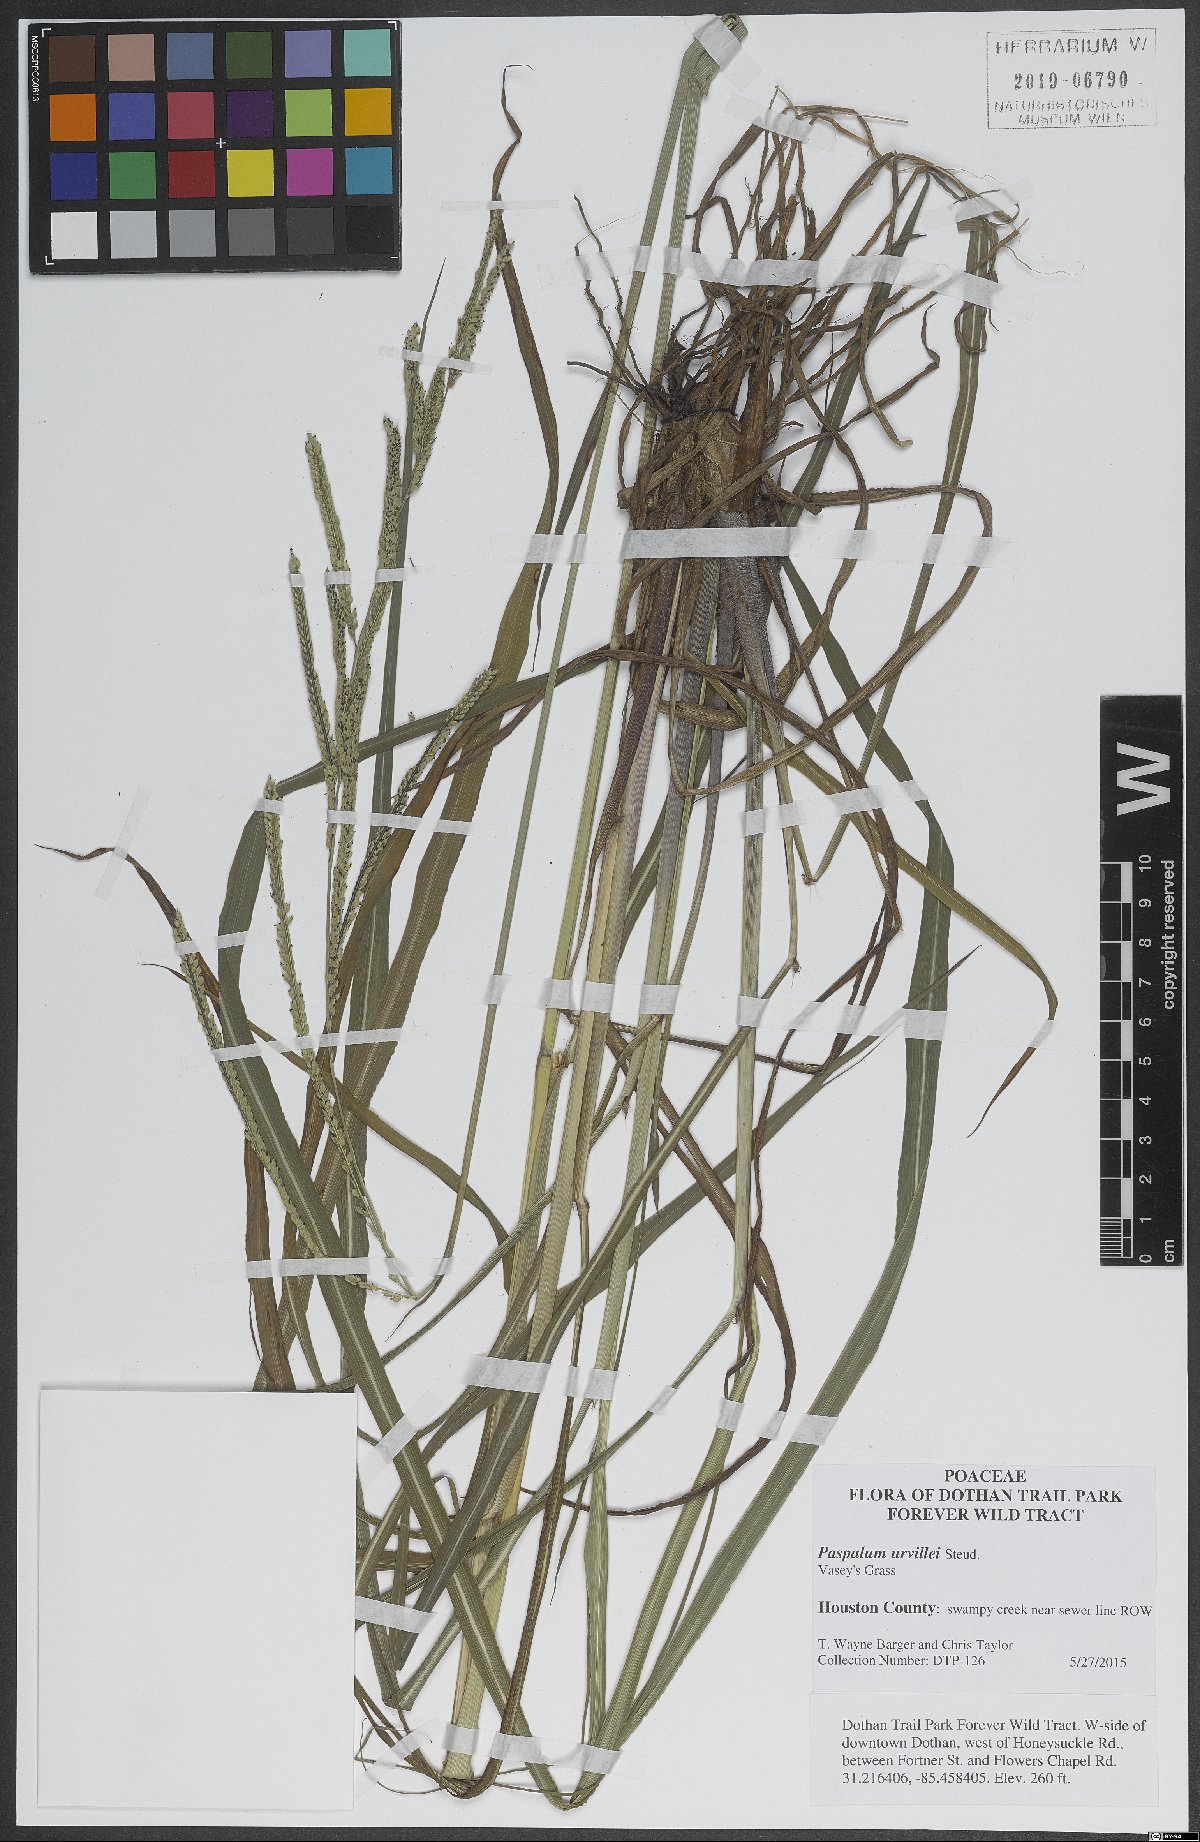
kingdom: Plantae
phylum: Tracheophyta
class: Liliopsida
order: Poales
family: Poaceae
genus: Paspalum
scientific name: Paspalum urvillei
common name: Vasey's grass
